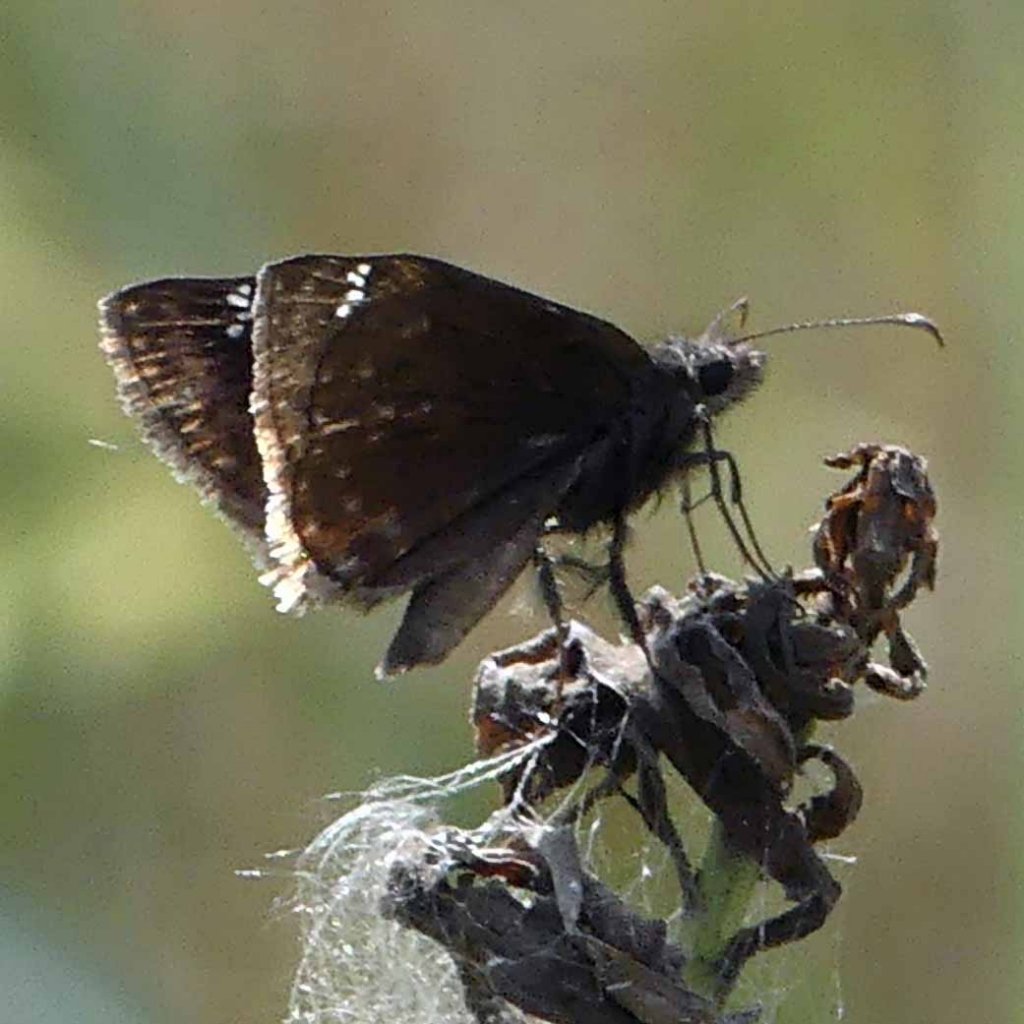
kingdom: Animalia
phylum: Arthropoda
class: Insecta
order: Lepidoptera
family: Hesperiidae
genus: Gesta
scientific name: Gesta
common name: Wild Indigo Duskywing
